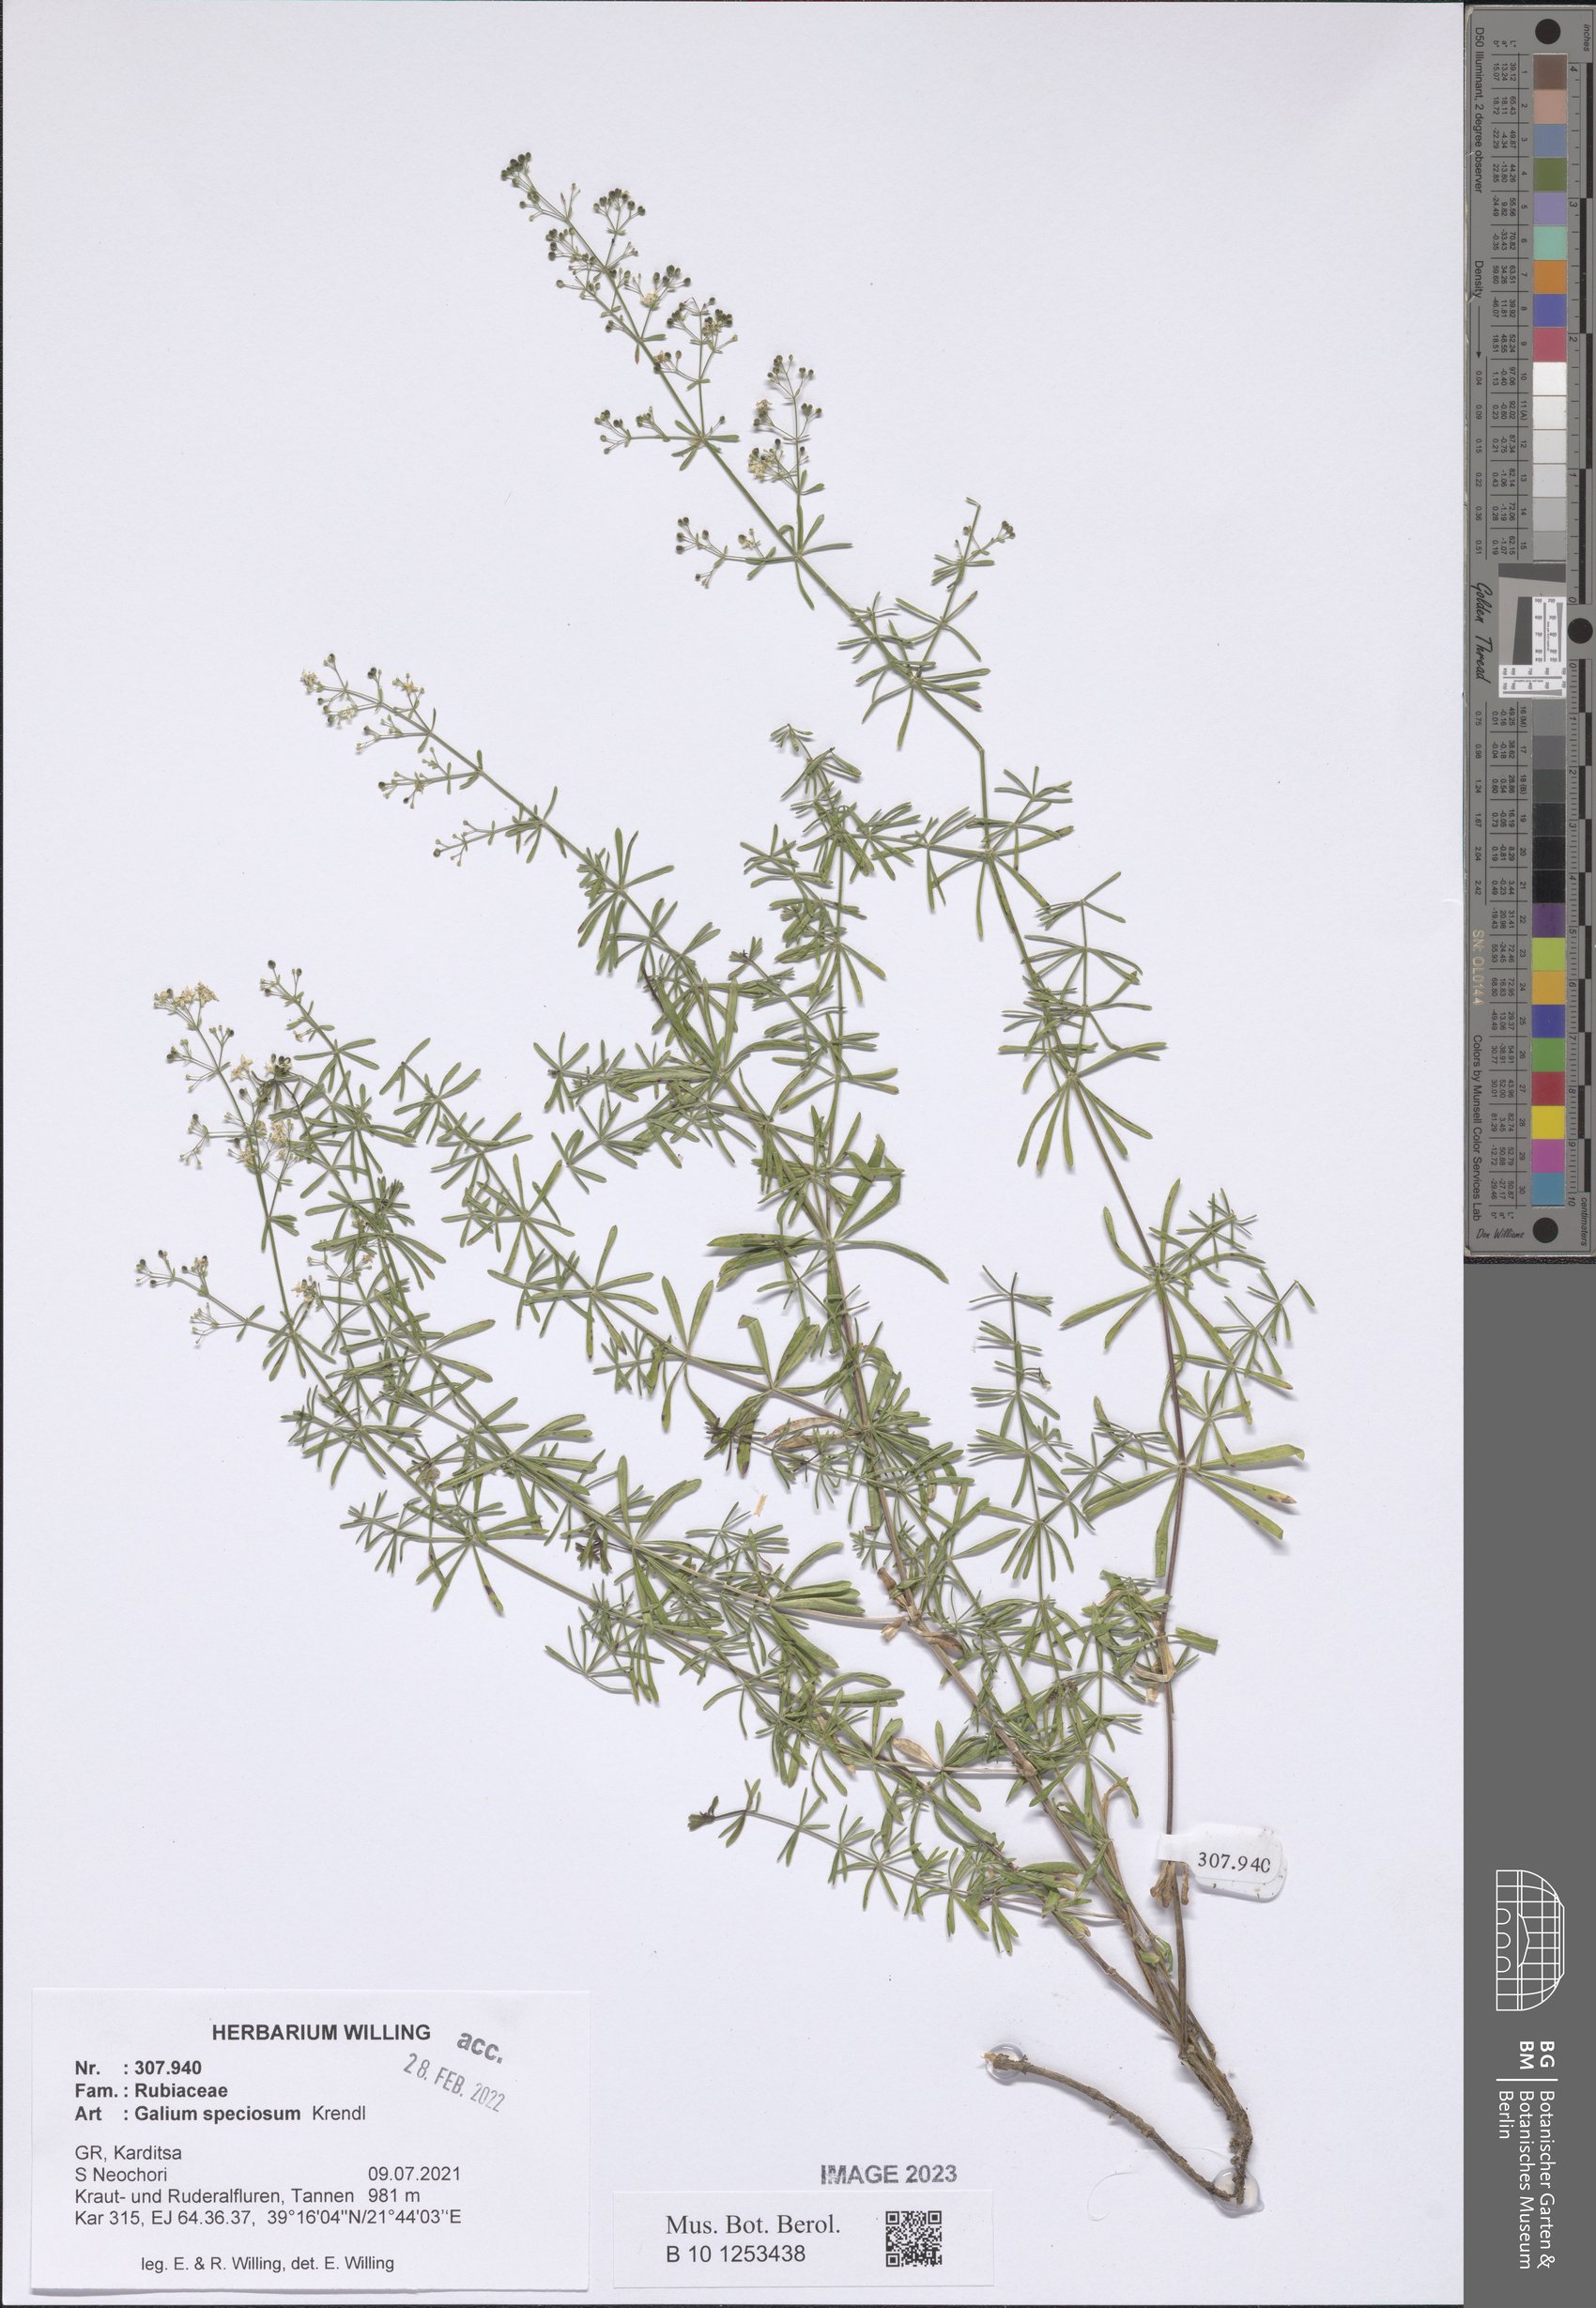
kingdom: Plantae
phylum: Tracheophyta
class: Magnoliopsida
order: Gentianales
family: Rubiaceae
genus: Galium
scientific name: Galium speciosum
